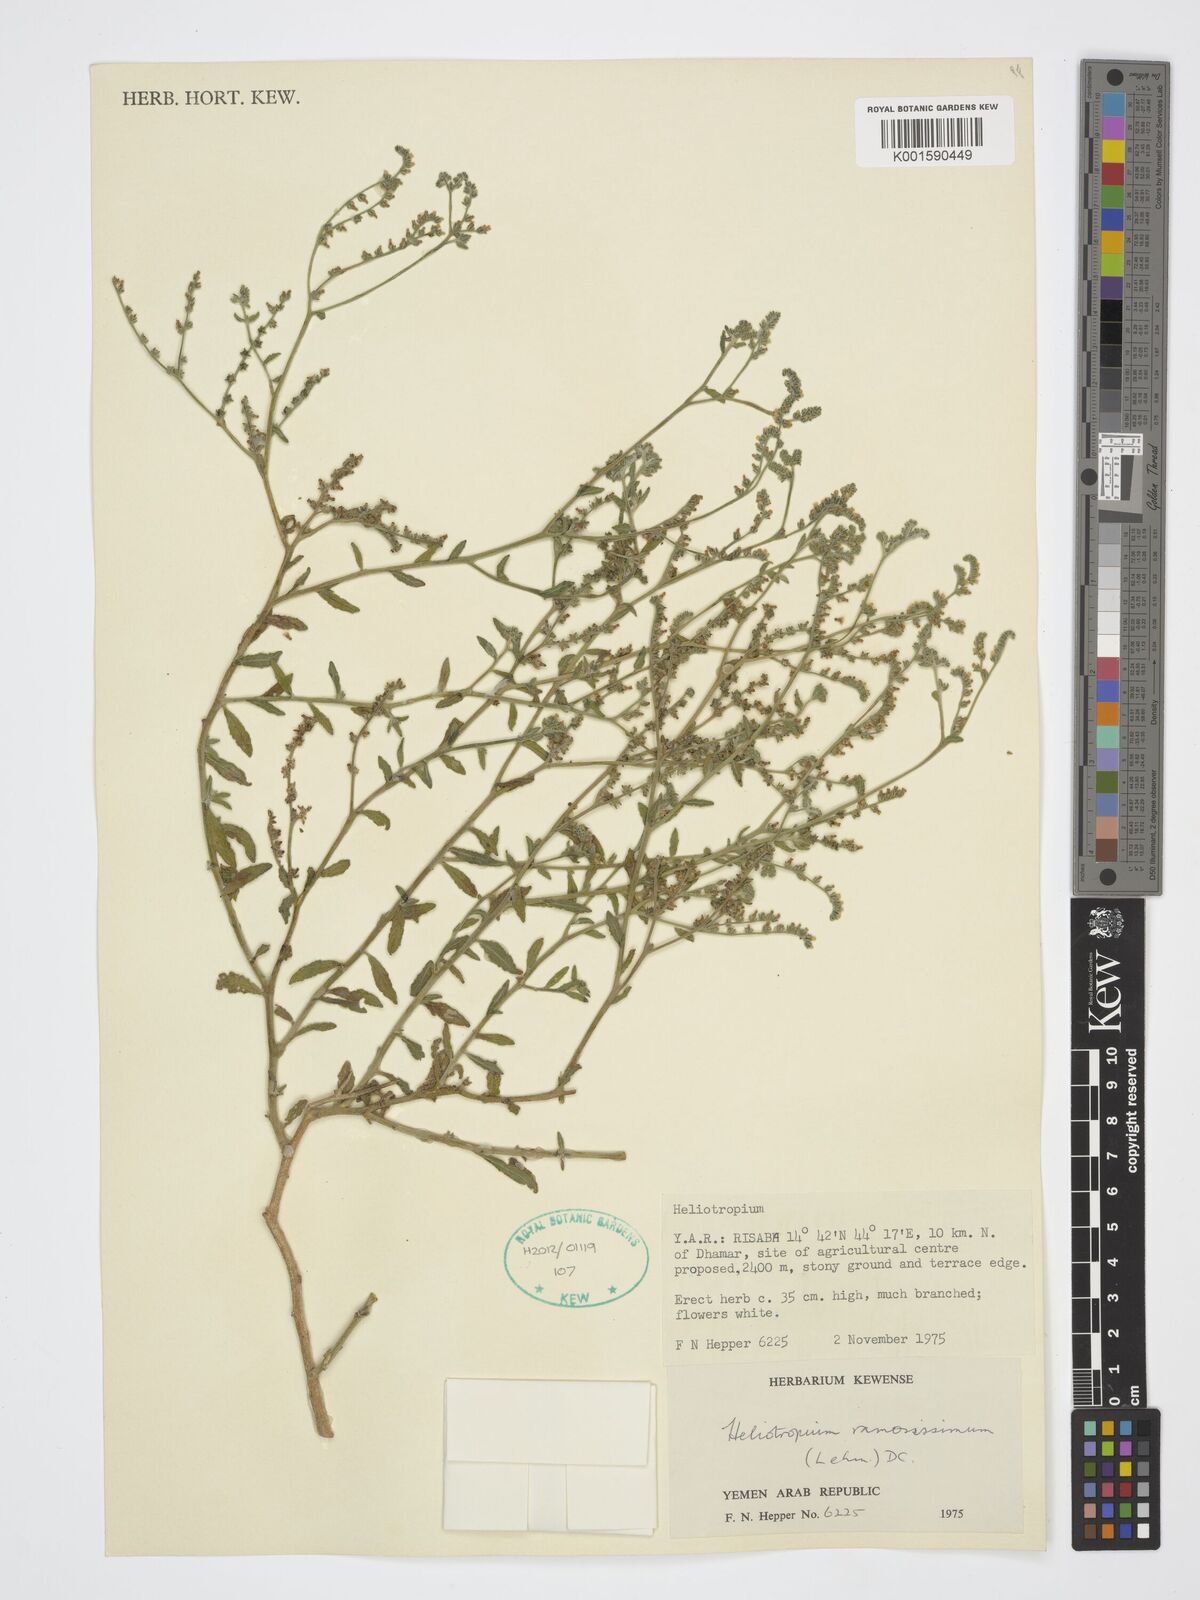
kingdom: Plantae
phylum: Tracheophyta
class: Magnoliopsida
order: Boraginales
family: Heliotropiaceae
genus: Heliotropium
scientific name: Heliotropium ramosissimum
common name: Wavy heliotrope
